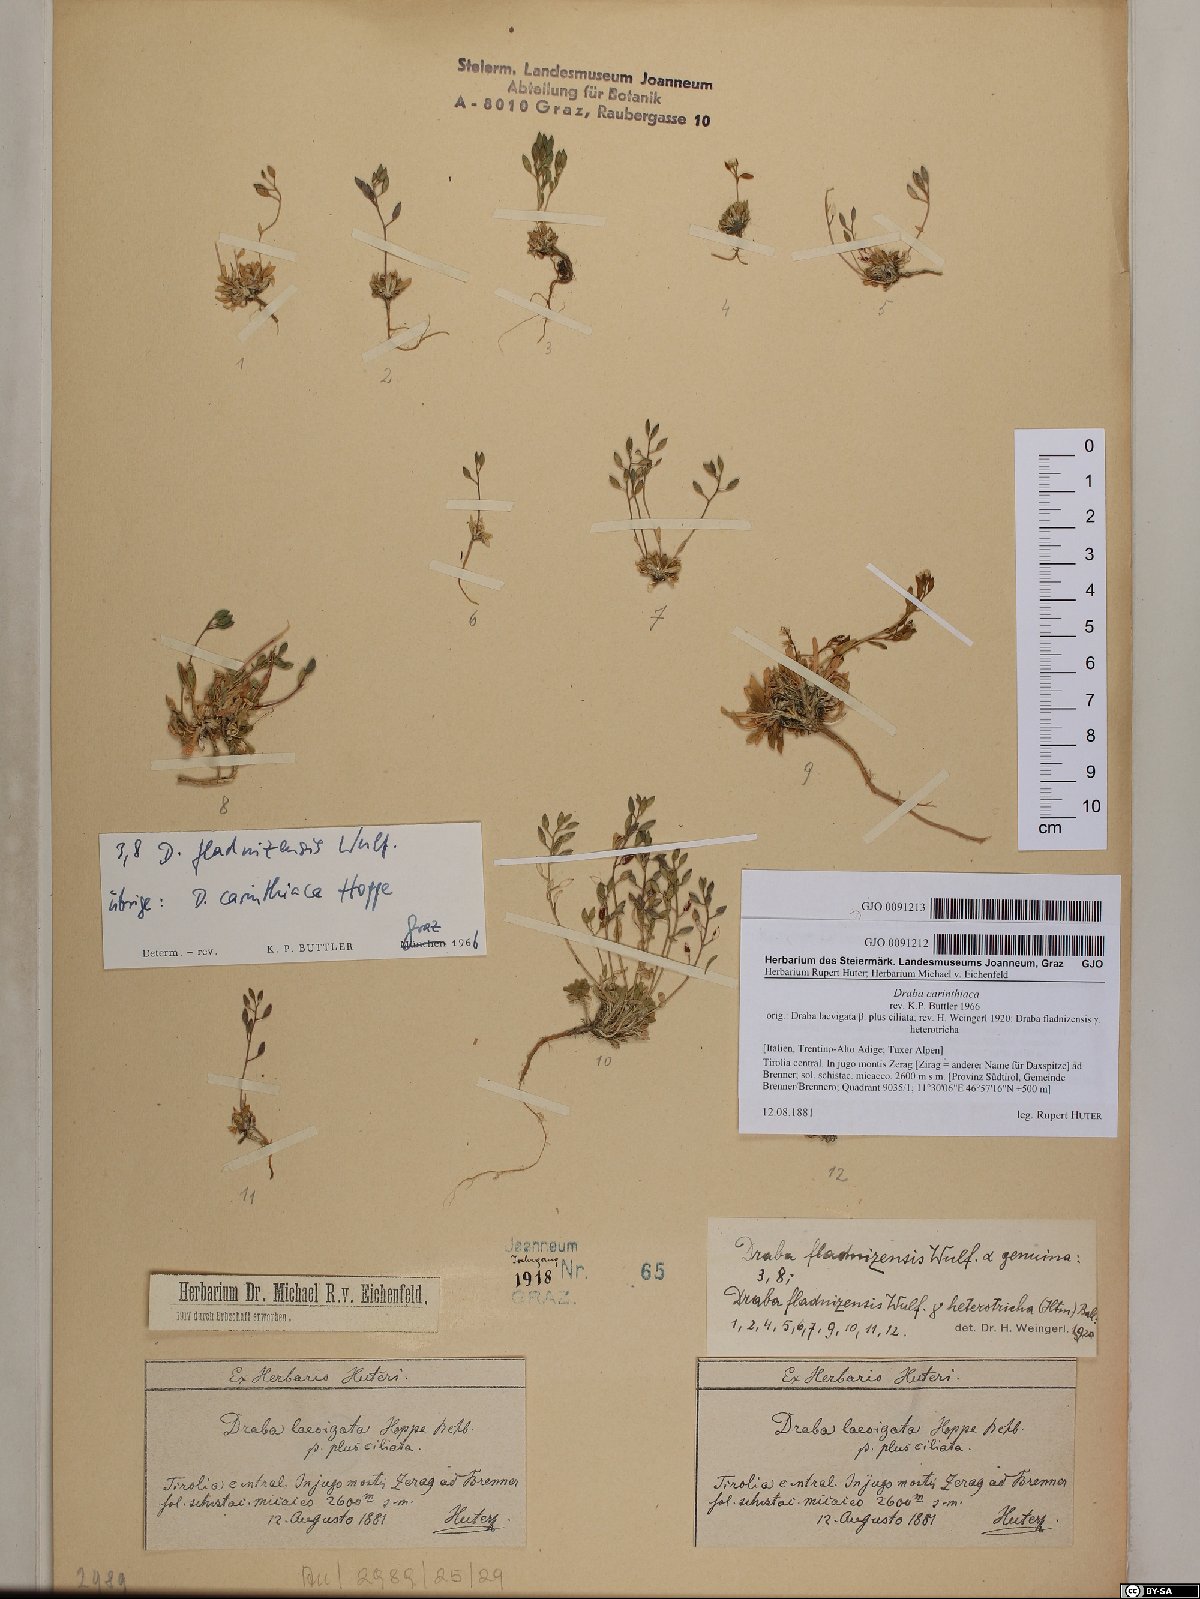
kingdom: Plantae
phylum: Tracheophyta
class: Magnoliopsida
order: Brassicales
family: Brassicaceae
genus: Draba
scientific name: Draba fladnizensis
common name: Austrian draba
